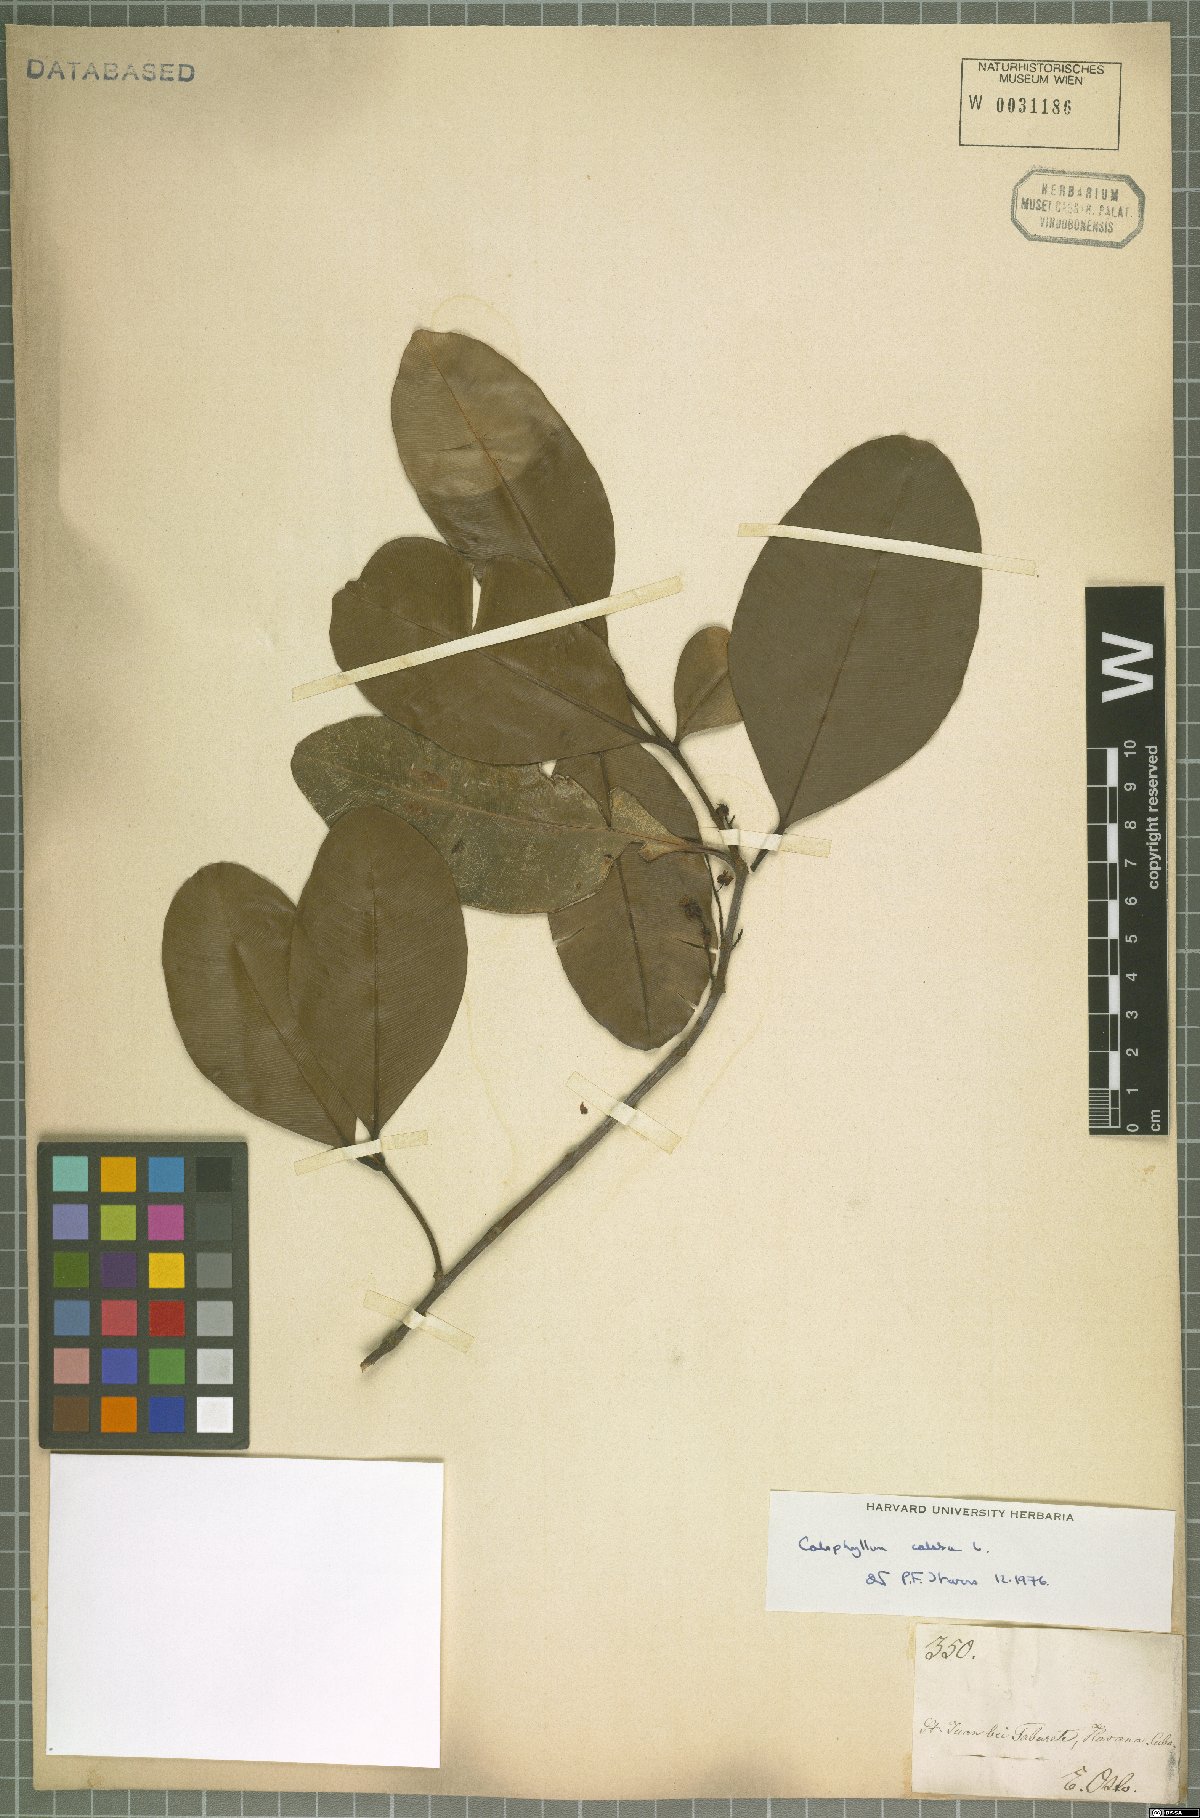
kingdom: Plantae
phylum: Tracheophyta
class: Magnoliopsida
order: Malpighiales
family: Calophyllaceae
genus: Calophyllum
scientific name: Calophyllum calaba
